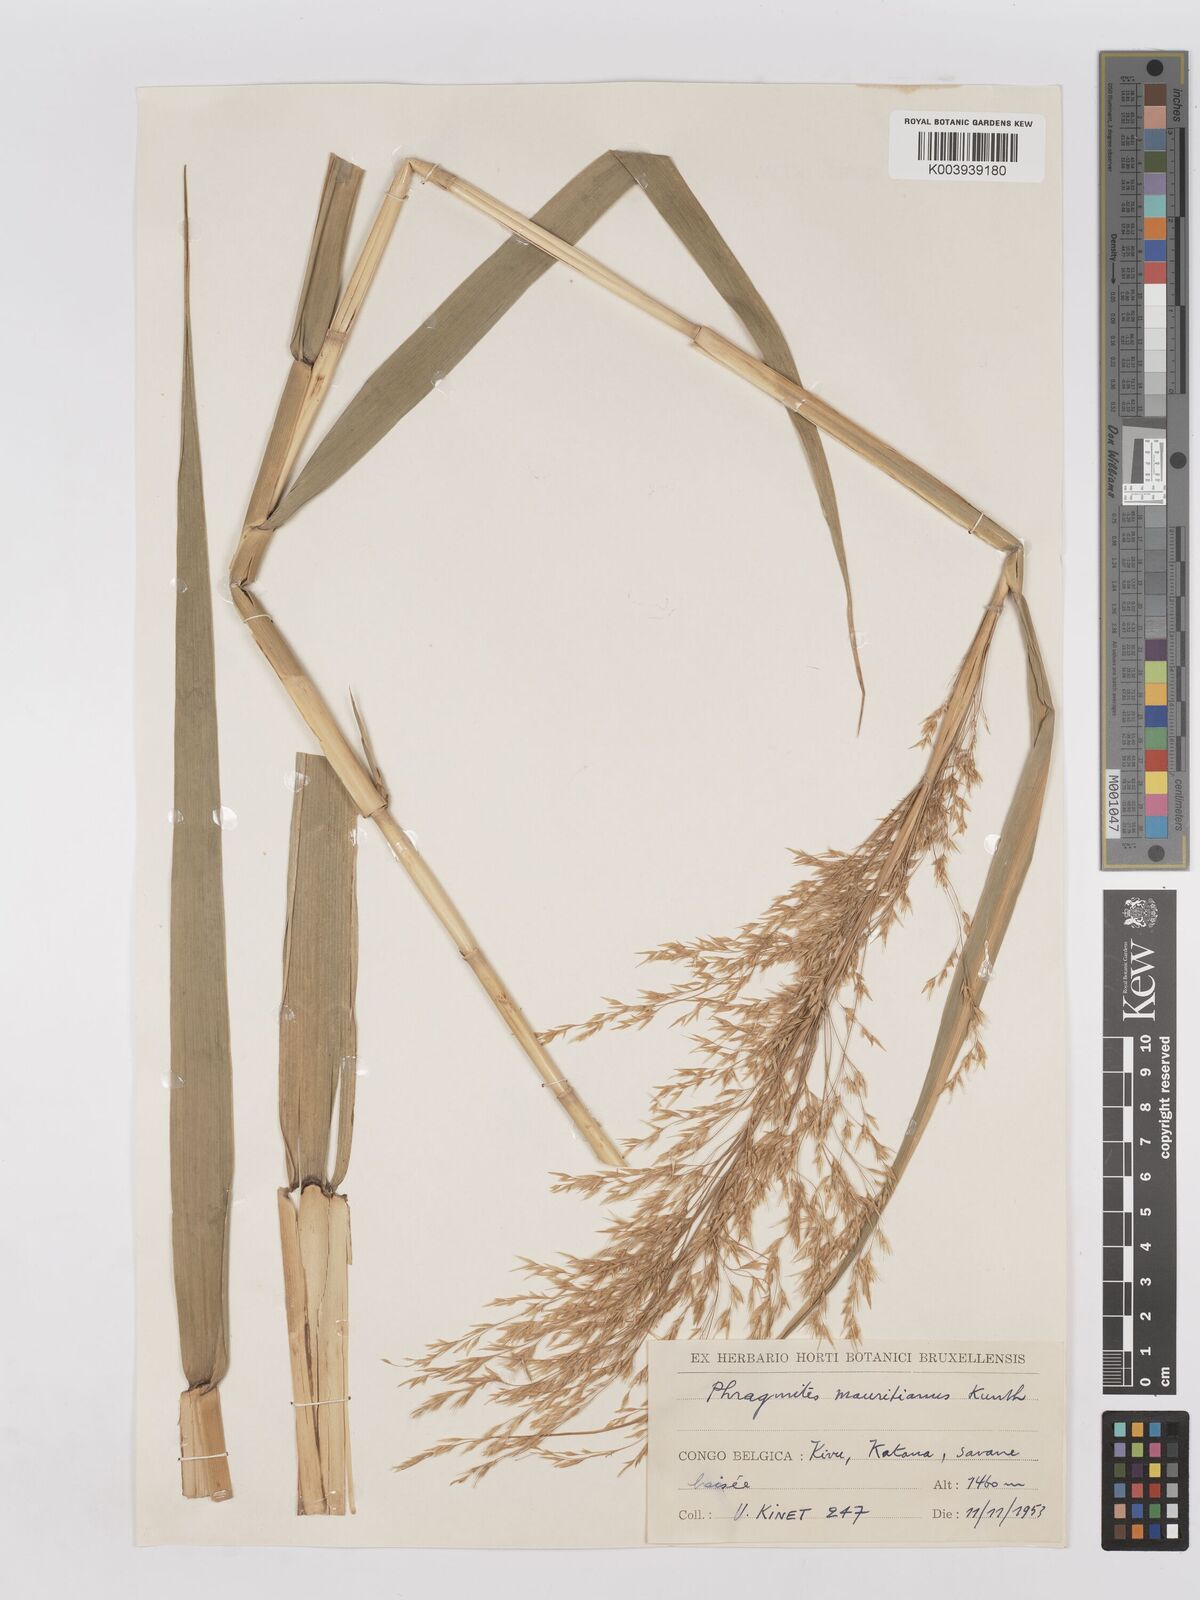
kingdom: Plantae
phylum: Tracheophyta
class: Liliopsida
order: Poales
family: Poaceae
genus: Phragmites
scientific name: Phragmites mauritianus
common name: Reed grass
